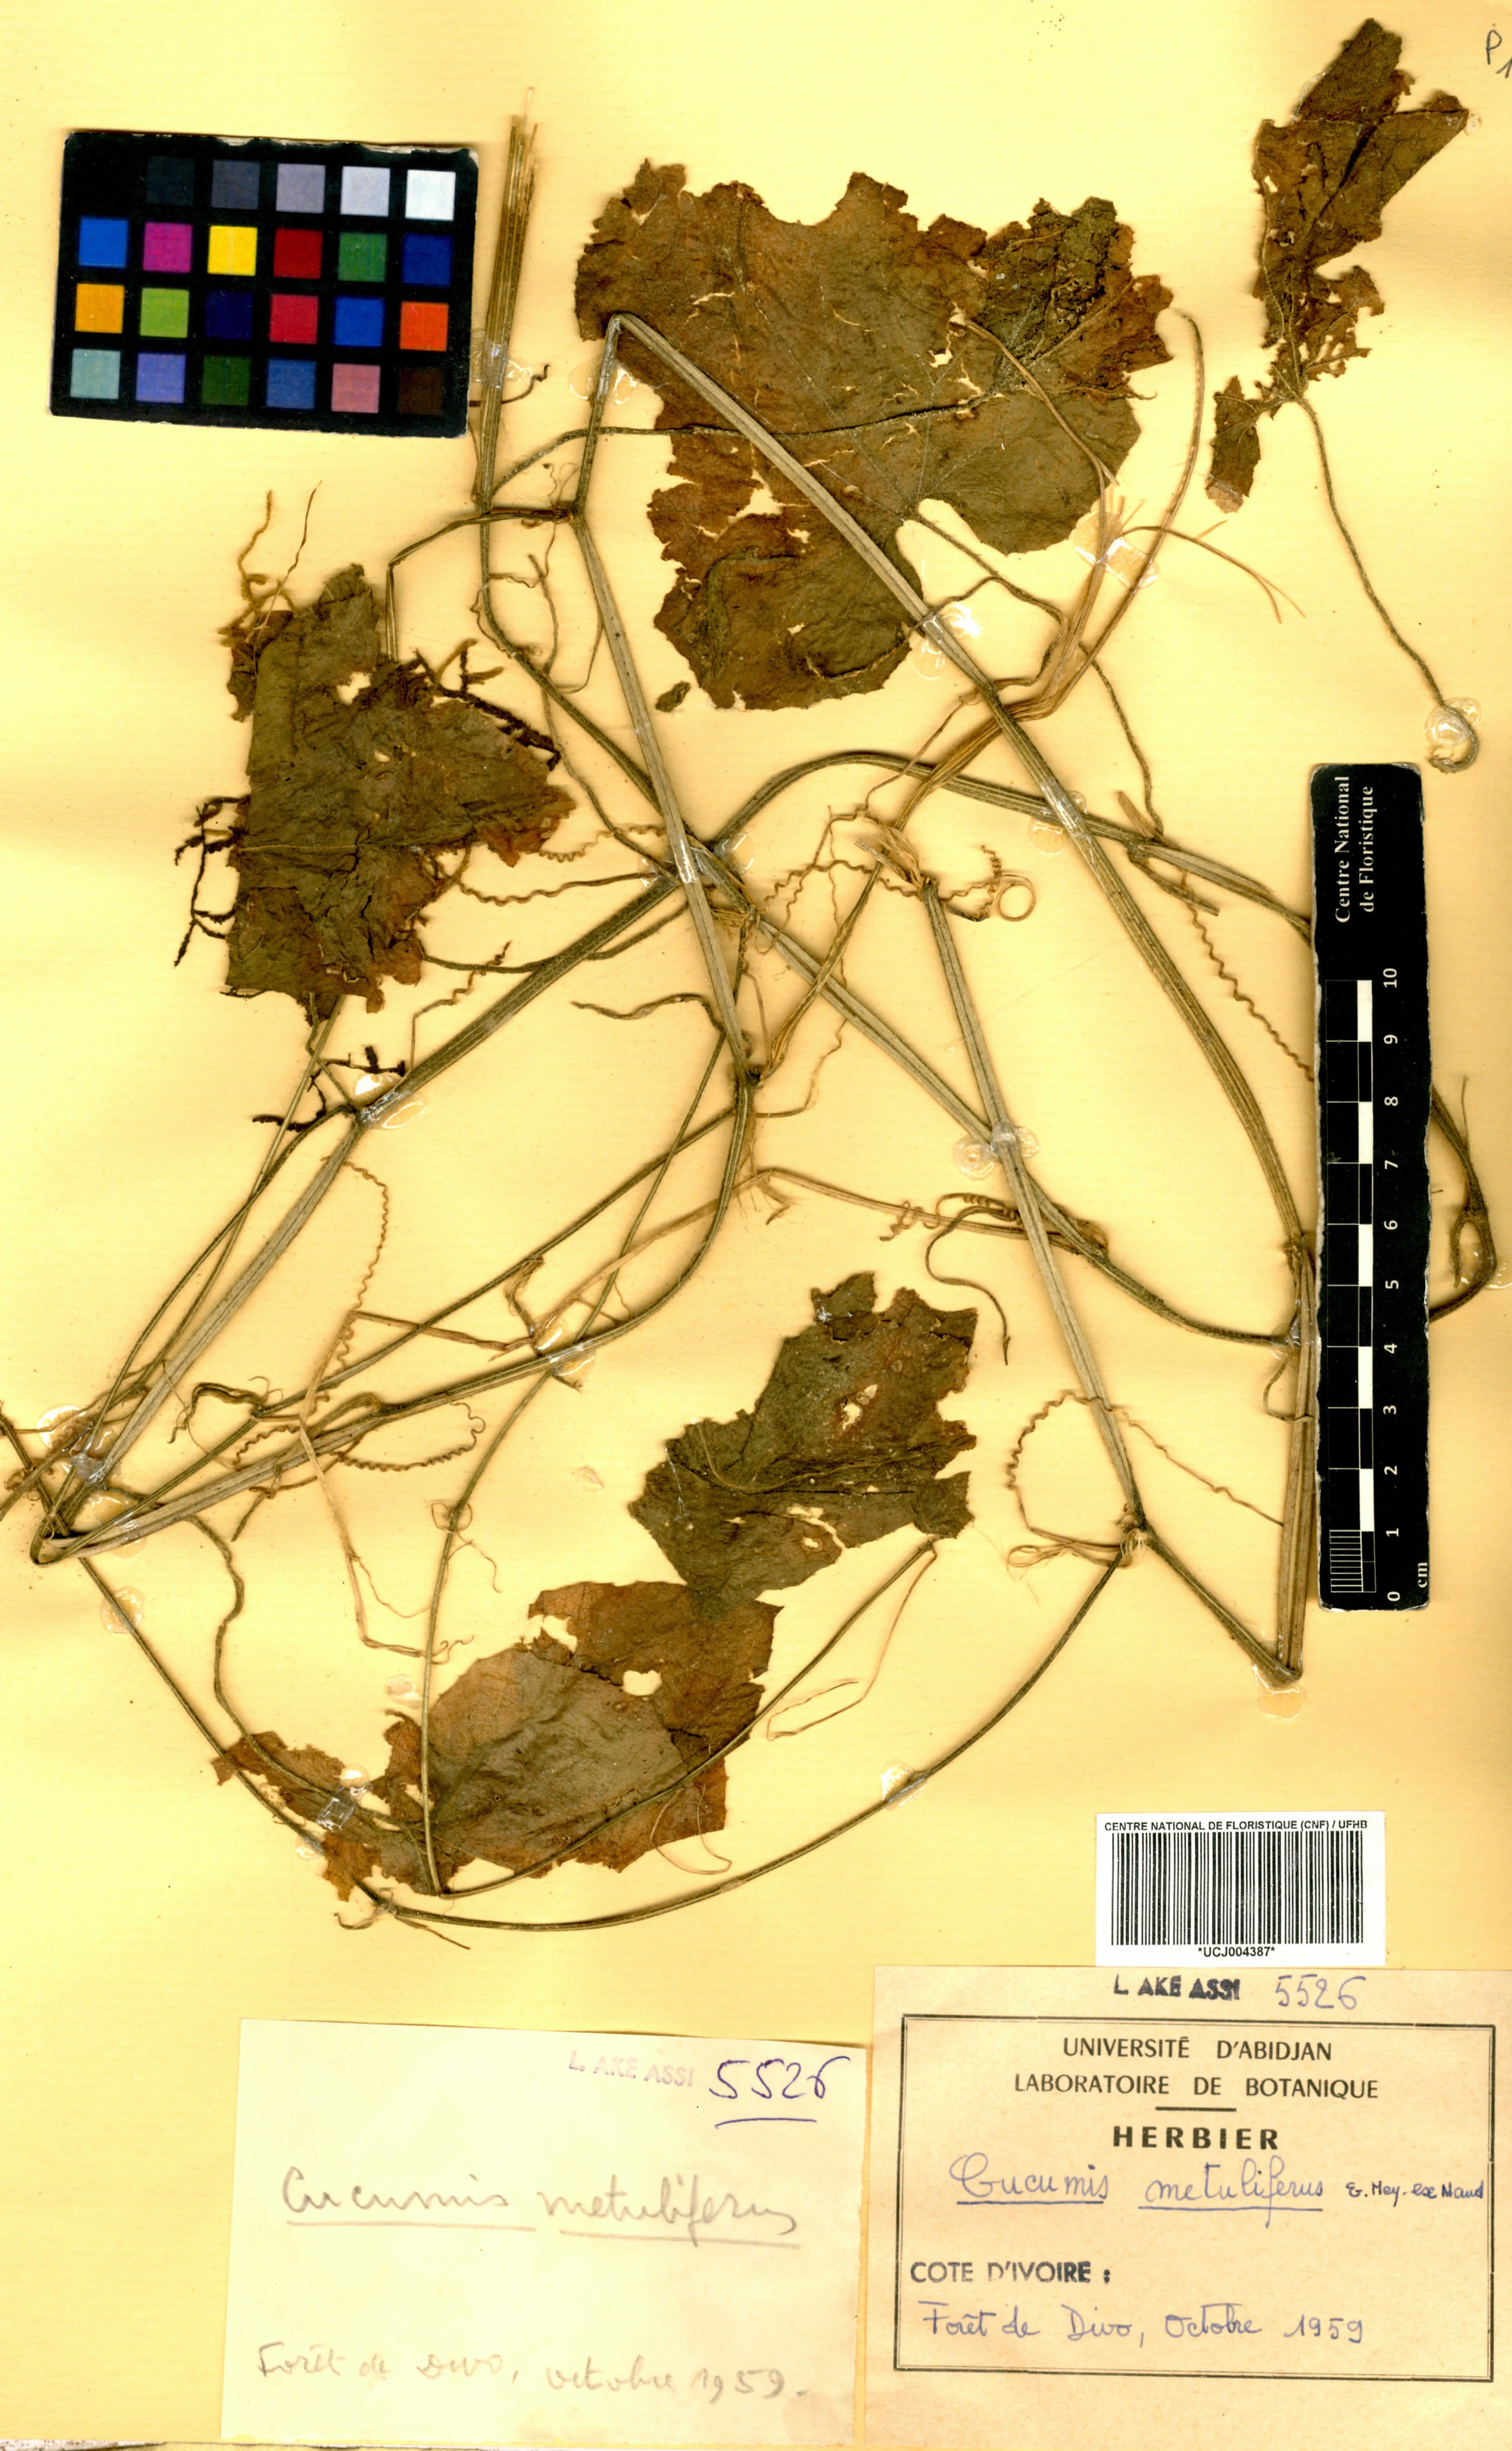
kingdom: Plantae
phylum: Tracheophyta
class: Magnoliopsida
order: Cucurbitales
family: Cucurbitaceae
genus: Cucumis
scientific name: Cucumis metuliferus
